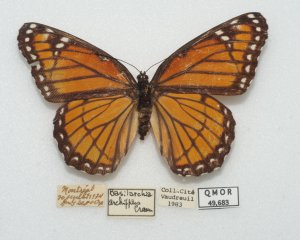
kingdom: Animalia
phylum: Arthropoda
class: Insecta
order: Lepidoptera
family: Nymphalidae
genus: Limenitis
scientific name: Limenitis archippus
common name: Viceroy
